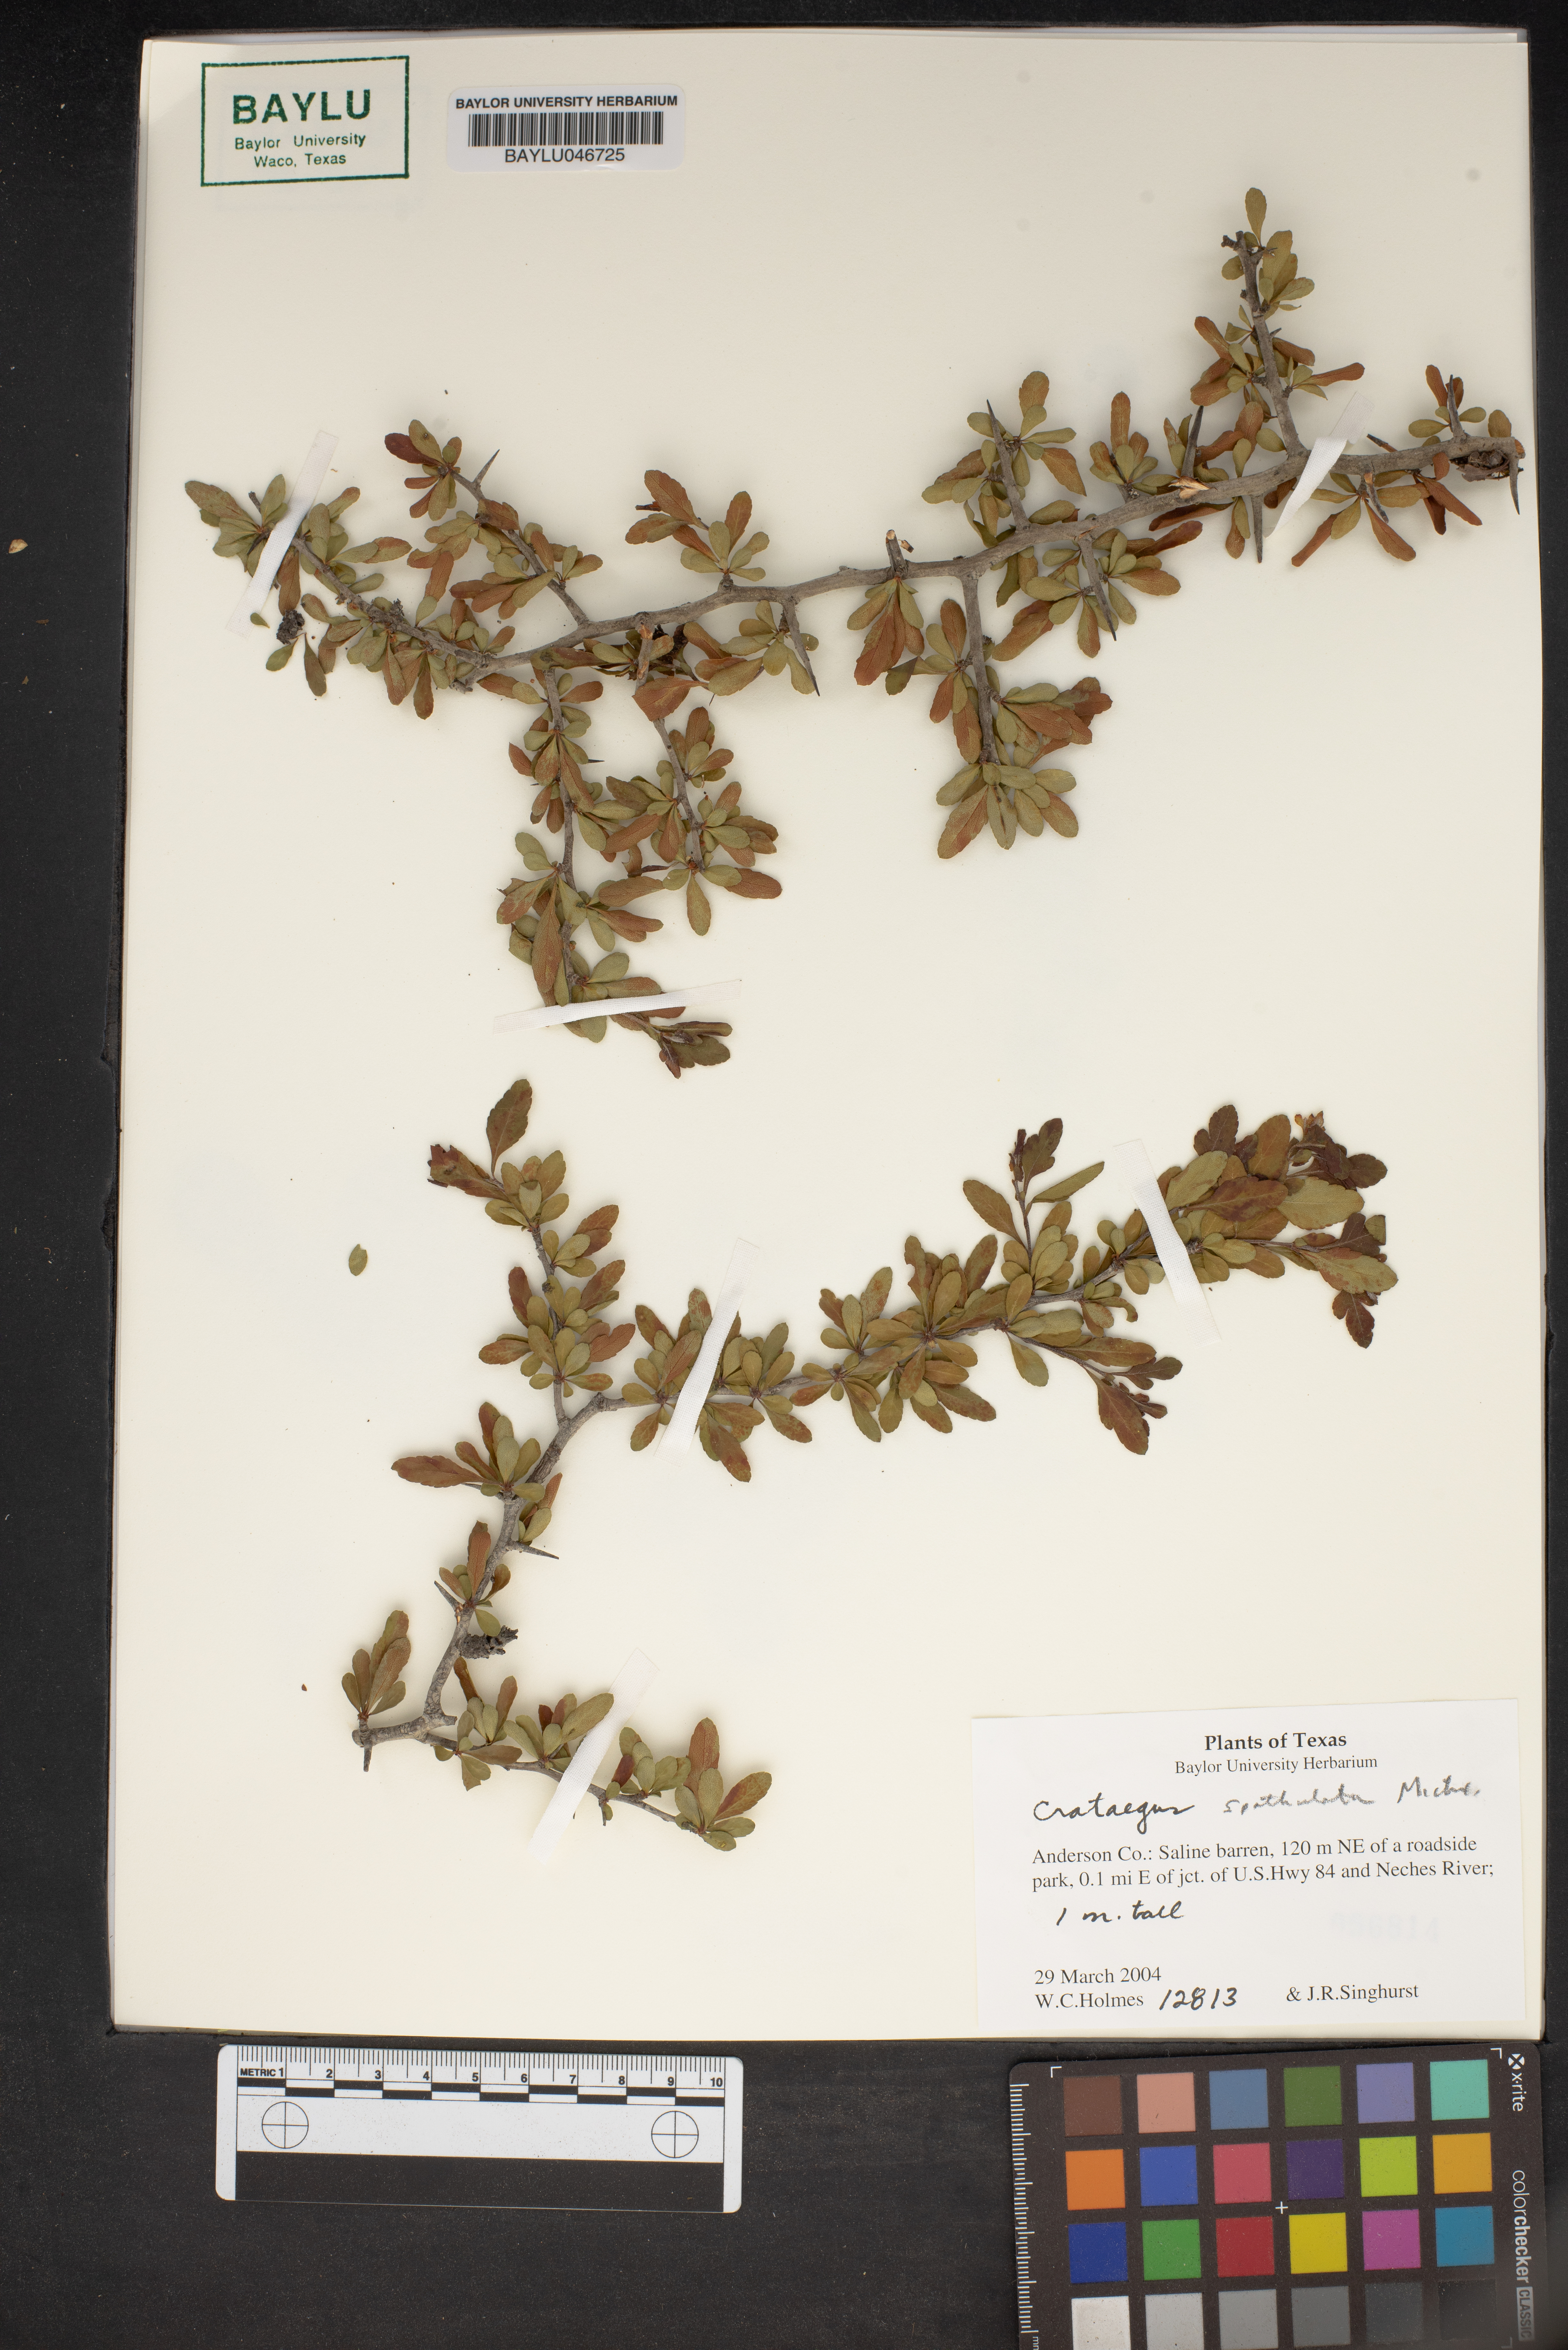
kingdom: Plantae
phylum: Tracheophyta
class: Magnoliopsida
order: Rosales
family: Rosaceae
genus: Crataegus
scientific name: Crataegus spathulata
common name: Littlehip hawthorn
